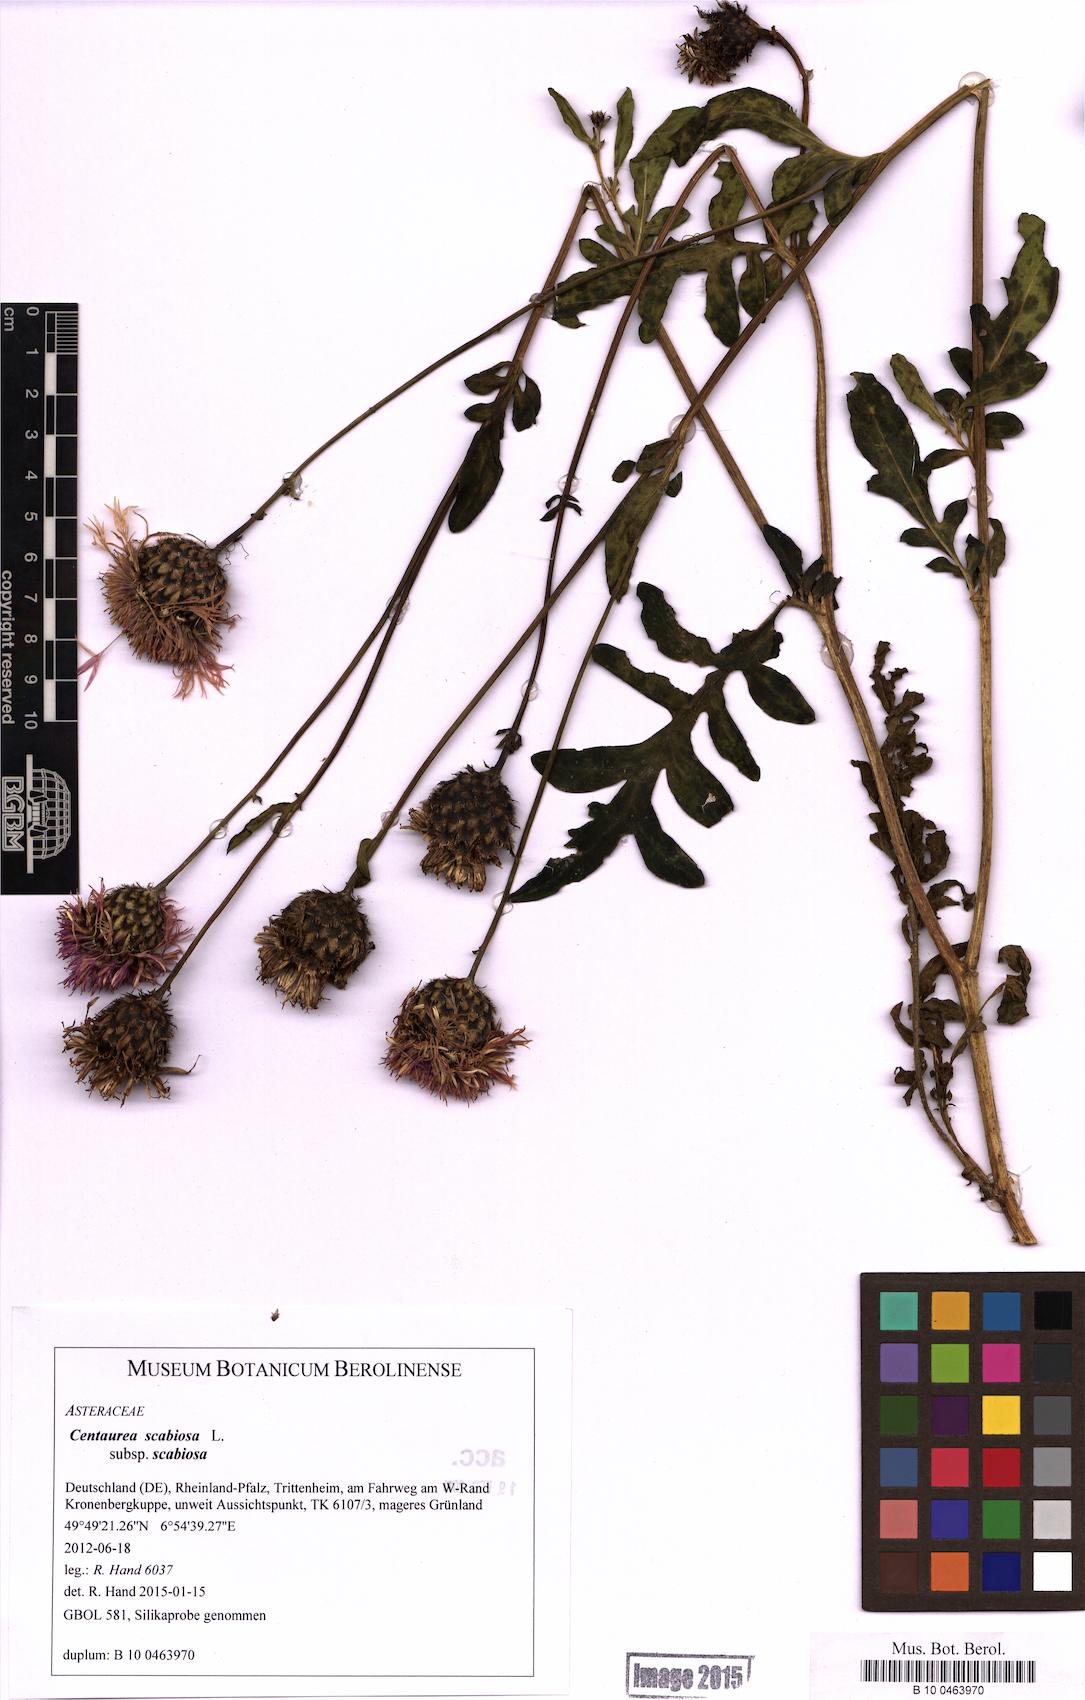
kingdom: Plantae
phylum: Tracheophyta
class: Magnoliopsida
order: Asterales
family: Asteraceae
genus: Centaurea
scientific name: Centaurea scabiosa
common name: Greater knapweed
